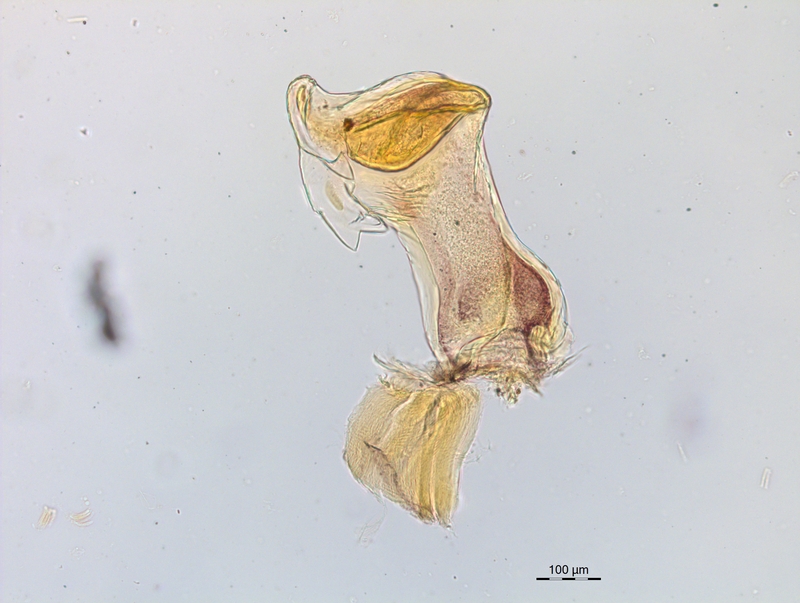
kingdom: Animalia
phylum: Arthropoda
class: Diplopoda
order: Chordeumatida
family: Craspedosomatidae
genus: Craspedosoma
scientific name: Craspedosoma rawlinsii
